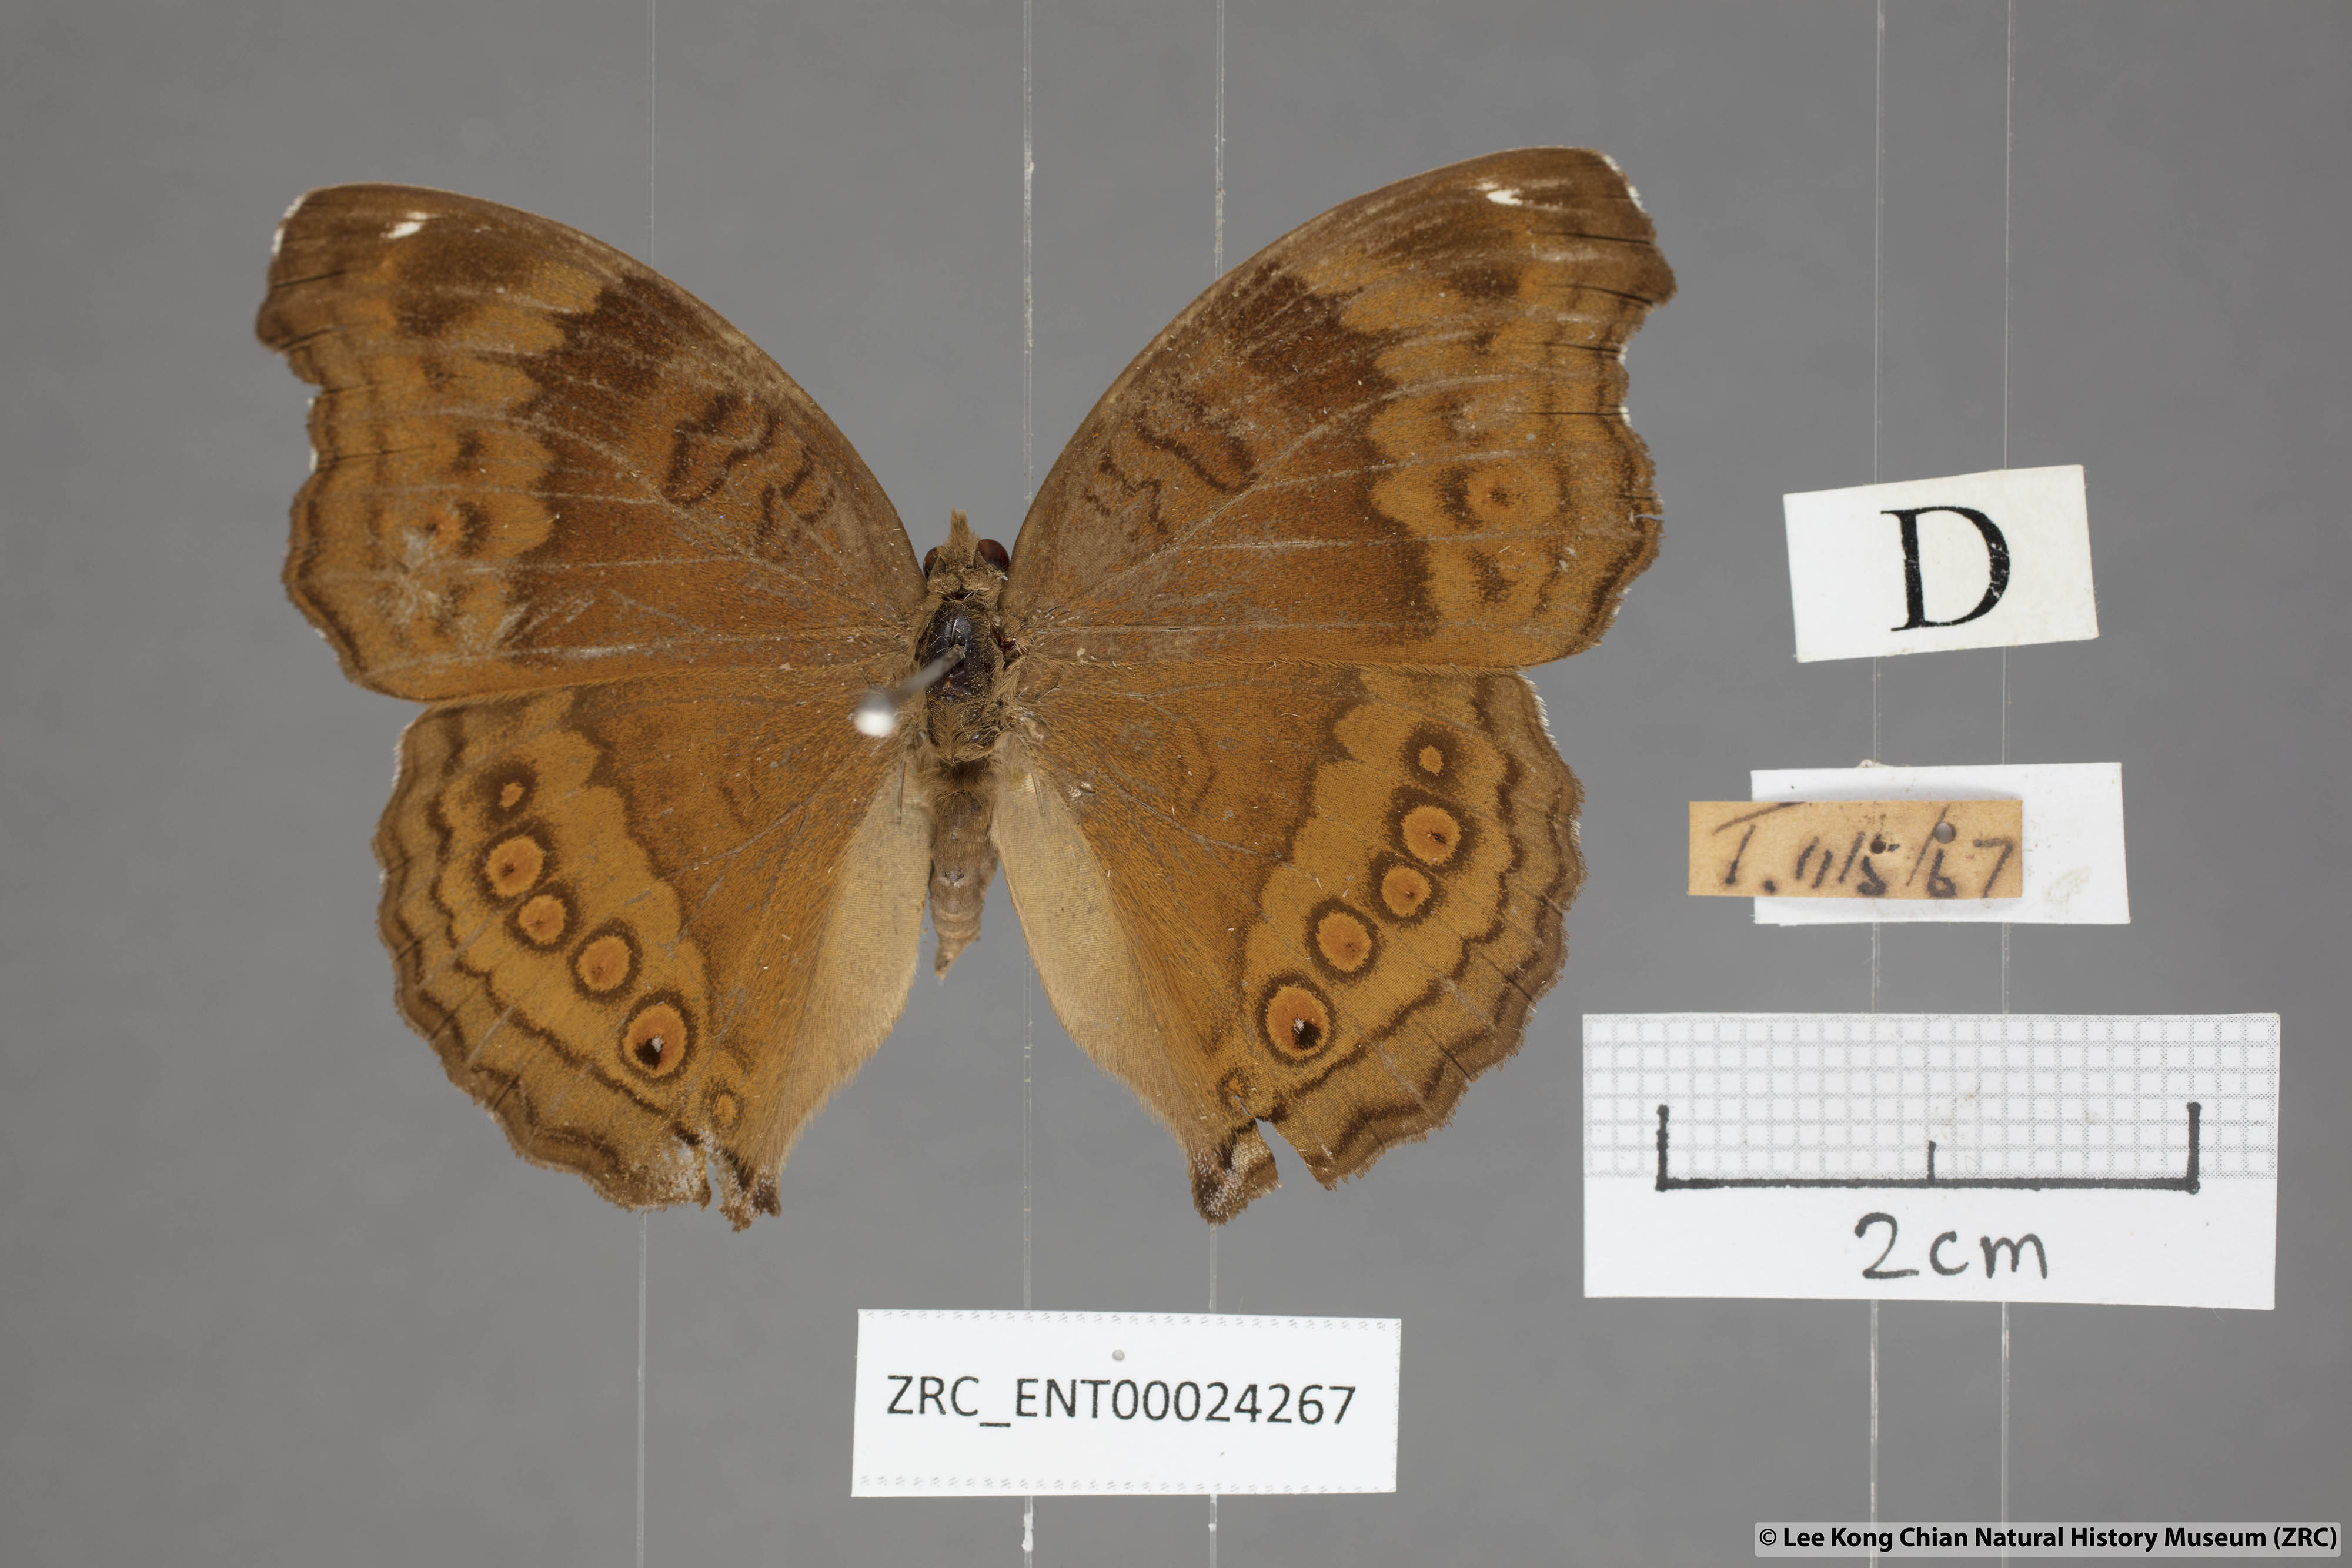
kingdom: Animalia
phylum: Arthropoda
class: Insecta
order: Lepidoptera
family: Nymphalidae
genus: Junonia
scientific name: Junonia hedonia
